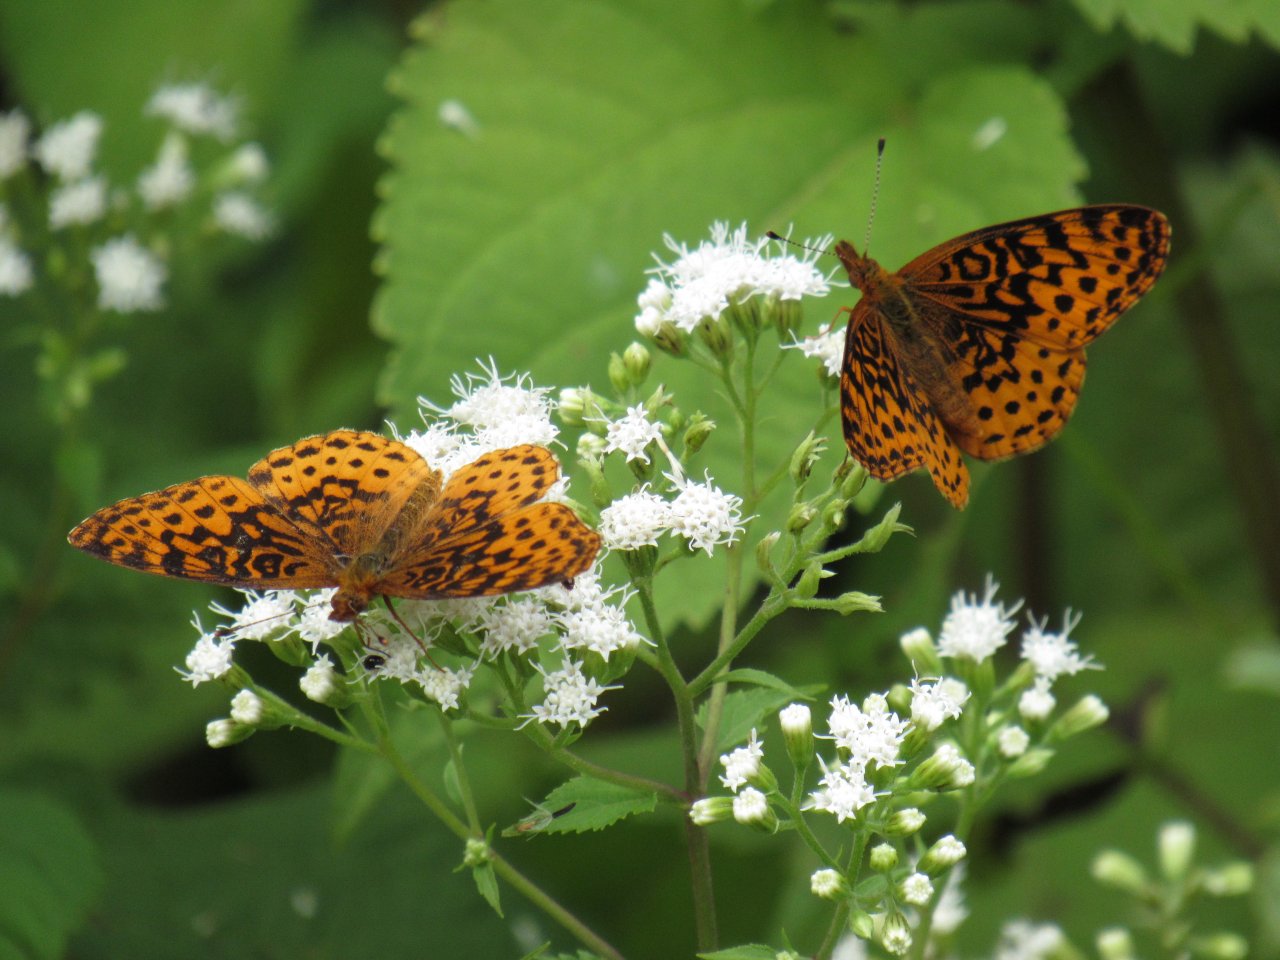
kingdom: Animalia
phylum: Arthropoda
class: Insecta
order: Lepidoptera
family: Nymphalidae
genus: Clossiana
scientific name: Clossiana toddi
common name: Meadow Fritillary
